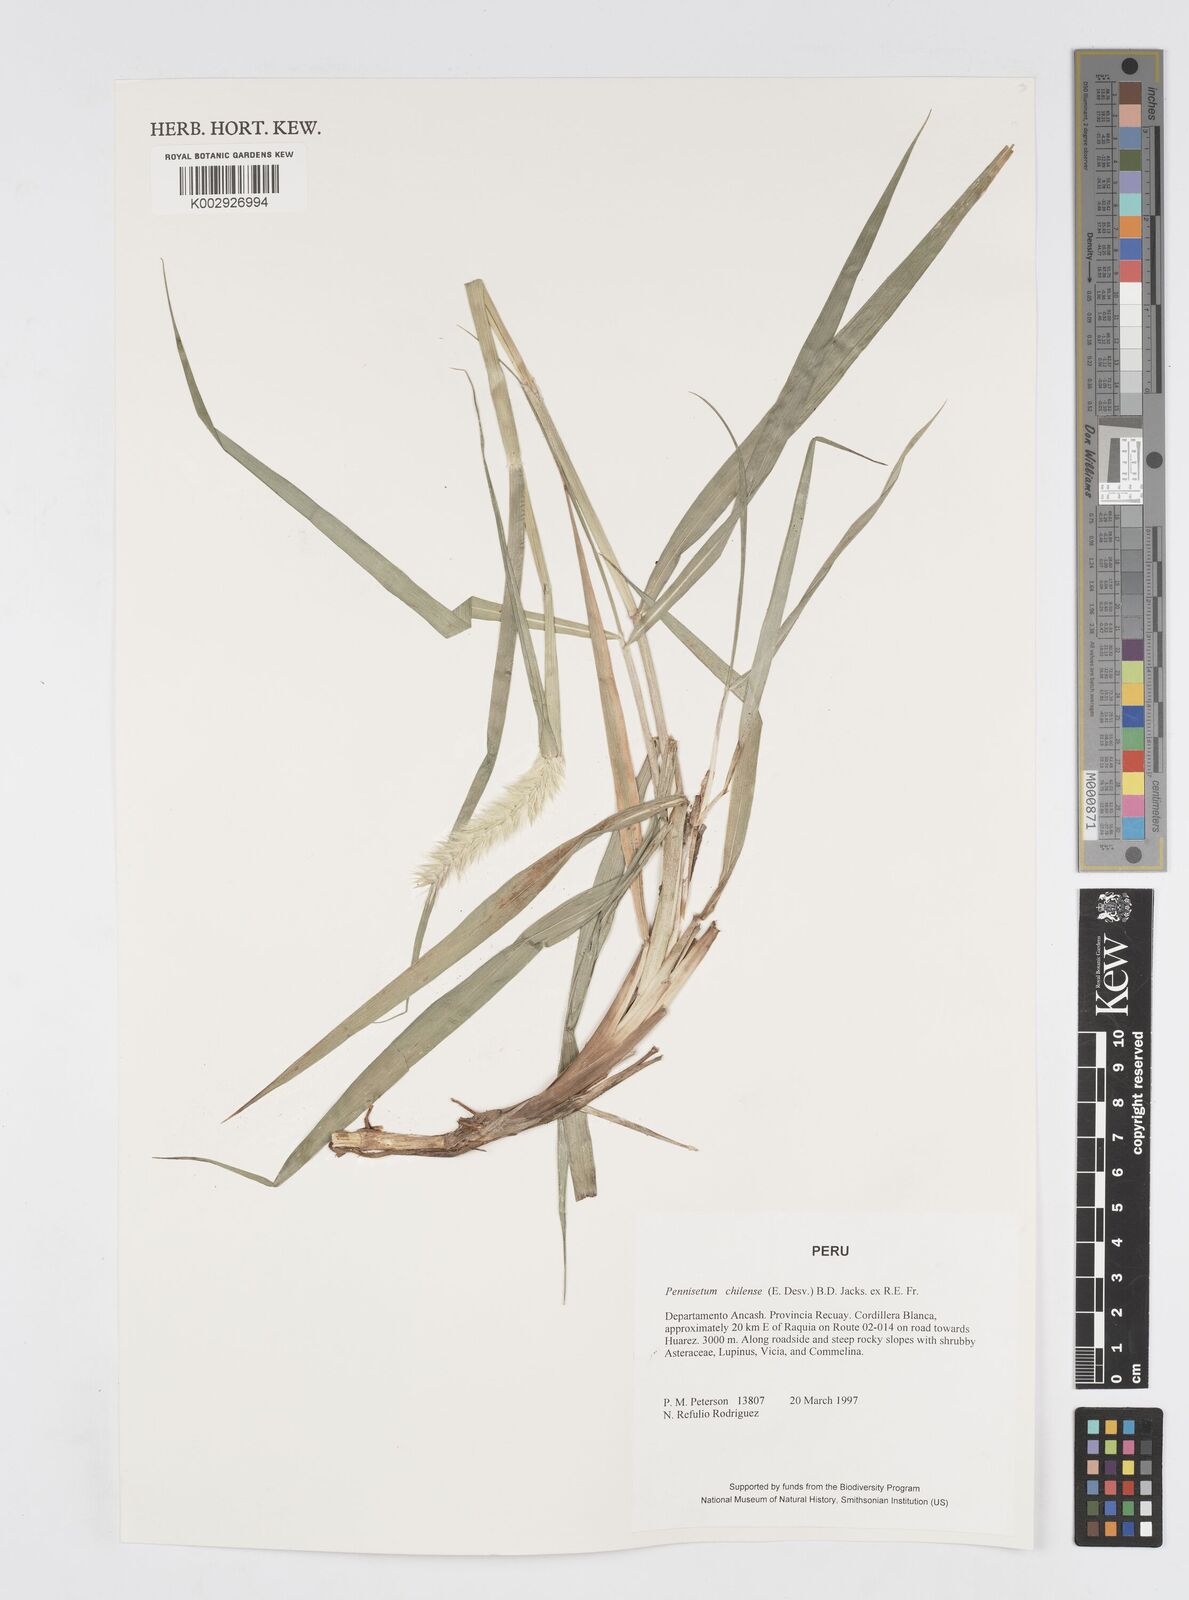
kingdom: Plantae
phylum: Tracheophyta
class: Liliopsida
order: Poales
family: Poaceae
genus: Cenchrus
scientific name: Cenchrus chilensis
